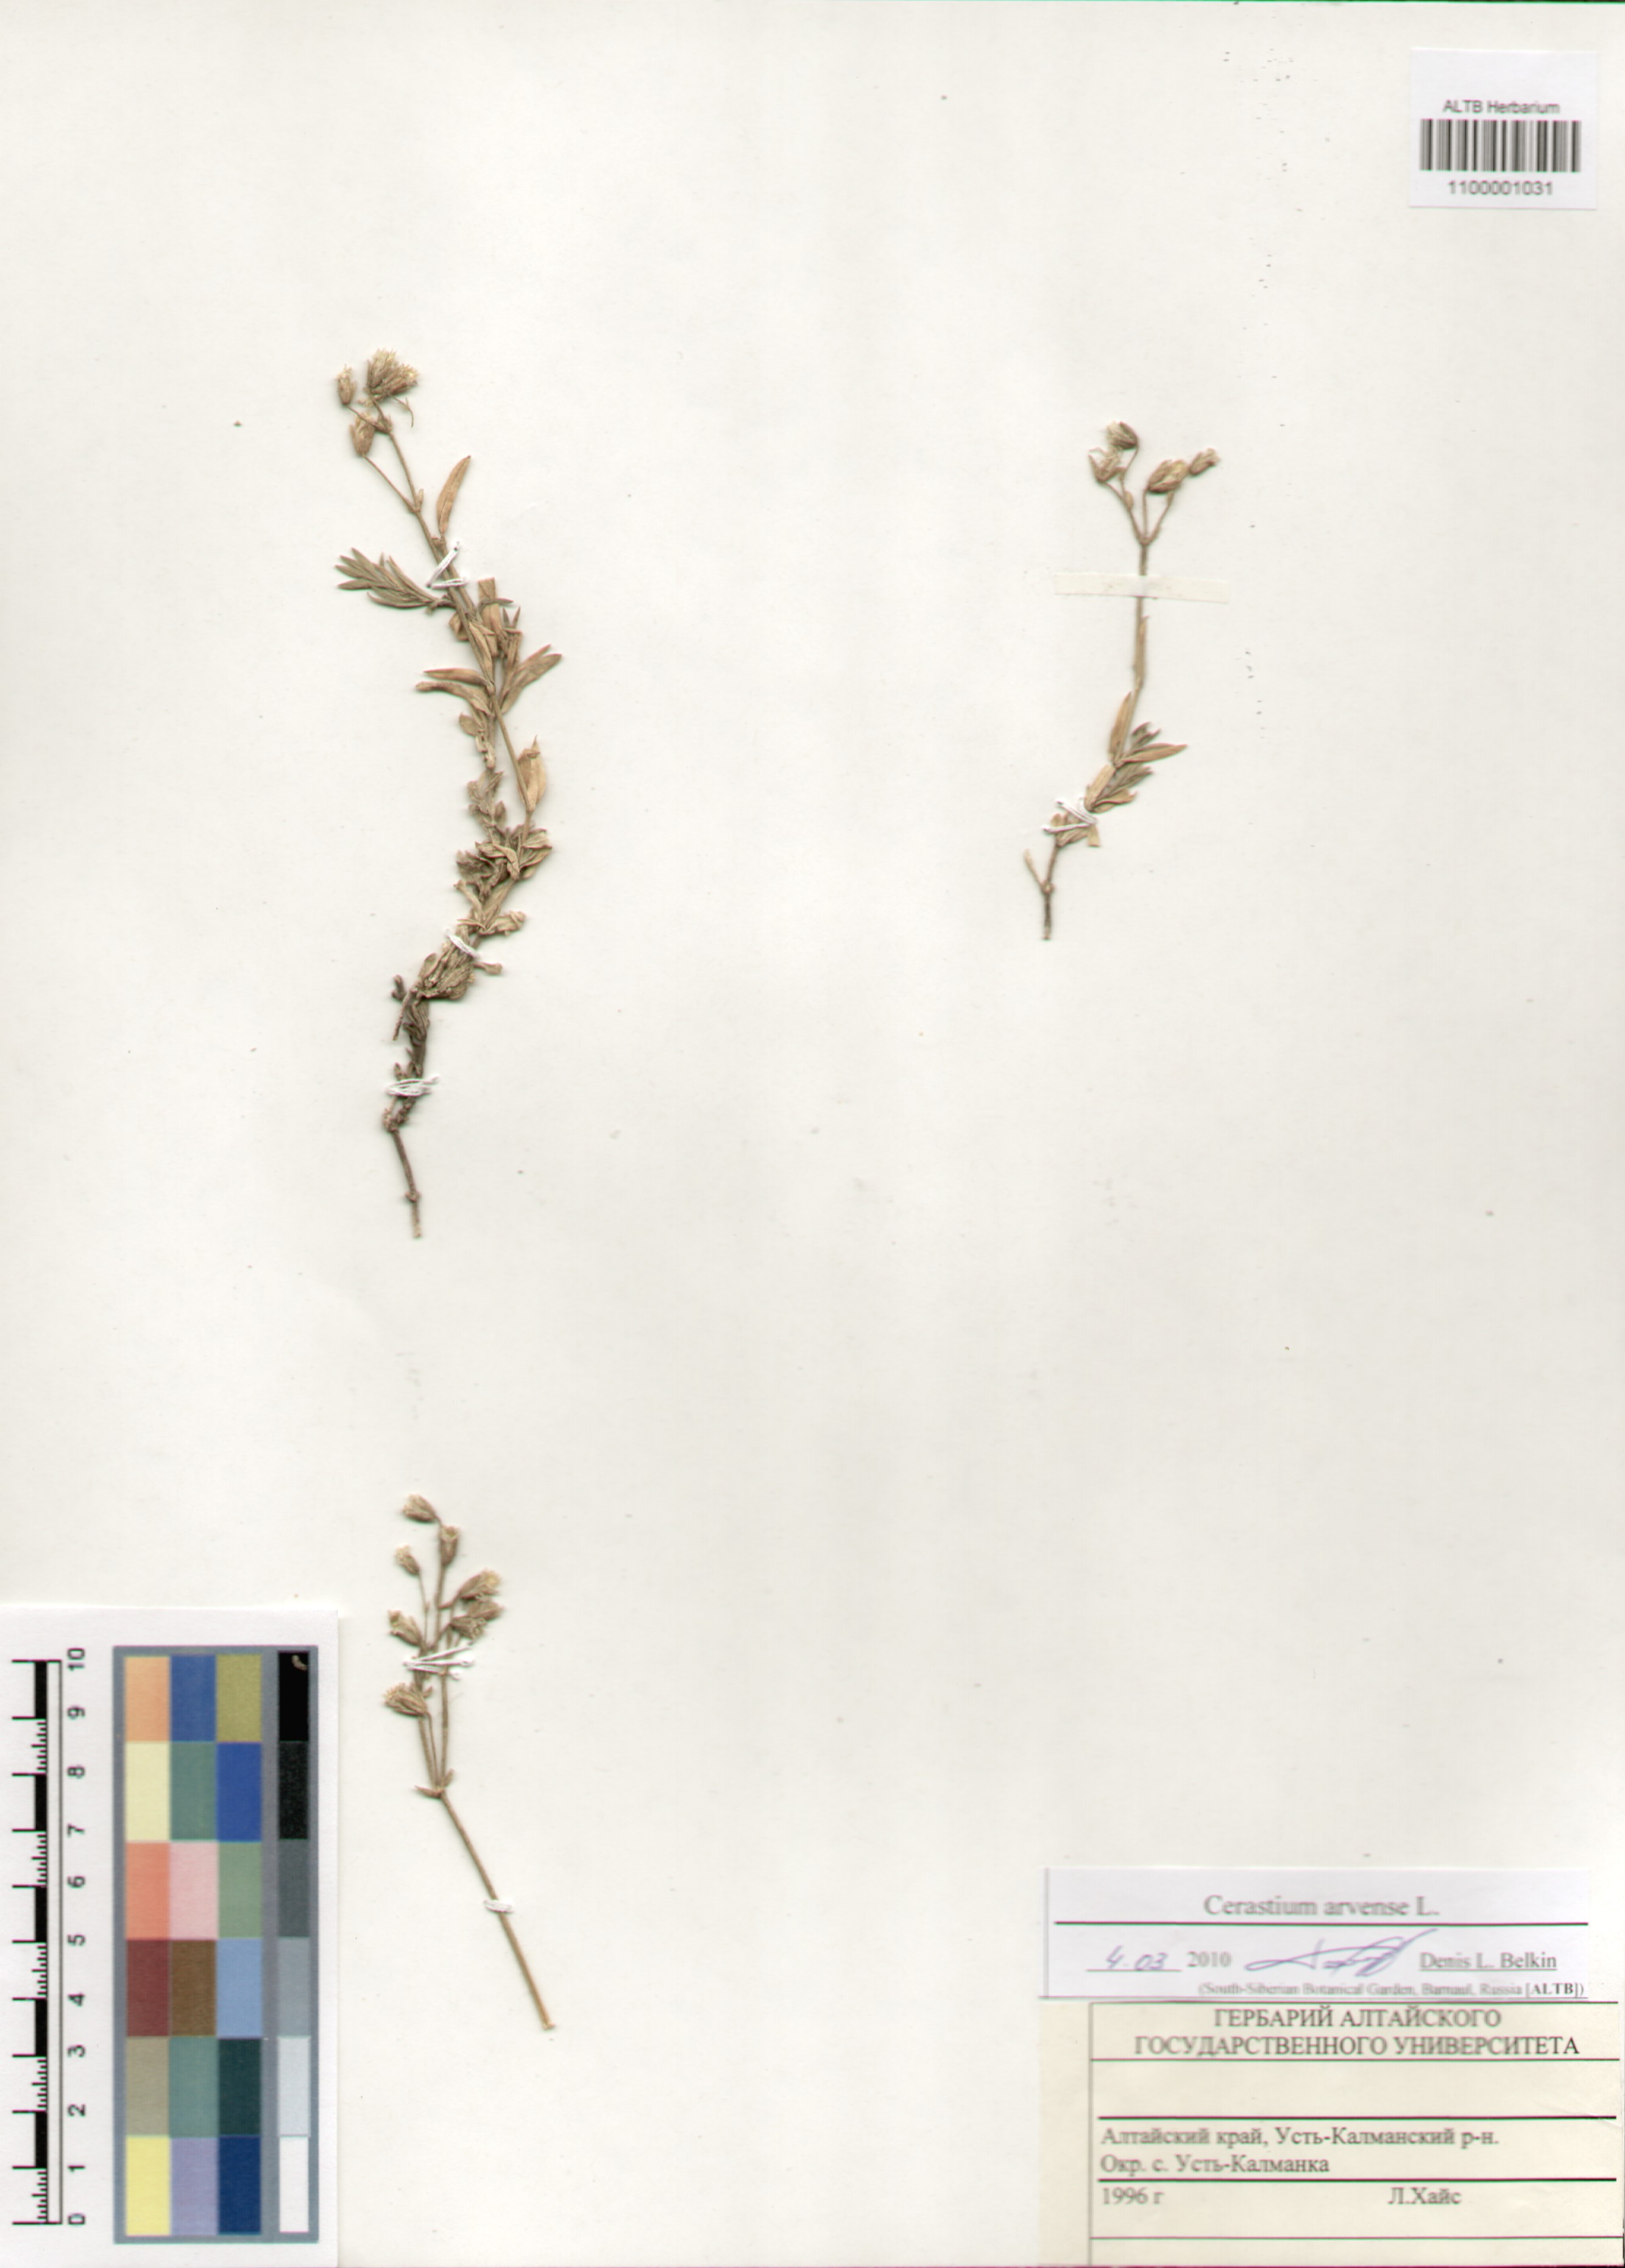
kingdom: Plantae
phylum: Tracheophyta
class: Magnoliopsida
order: Caryophyllales
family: Caryophyllaceae
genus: Cerastium
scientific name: Cerastium arvense
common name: Field mouse-ear
